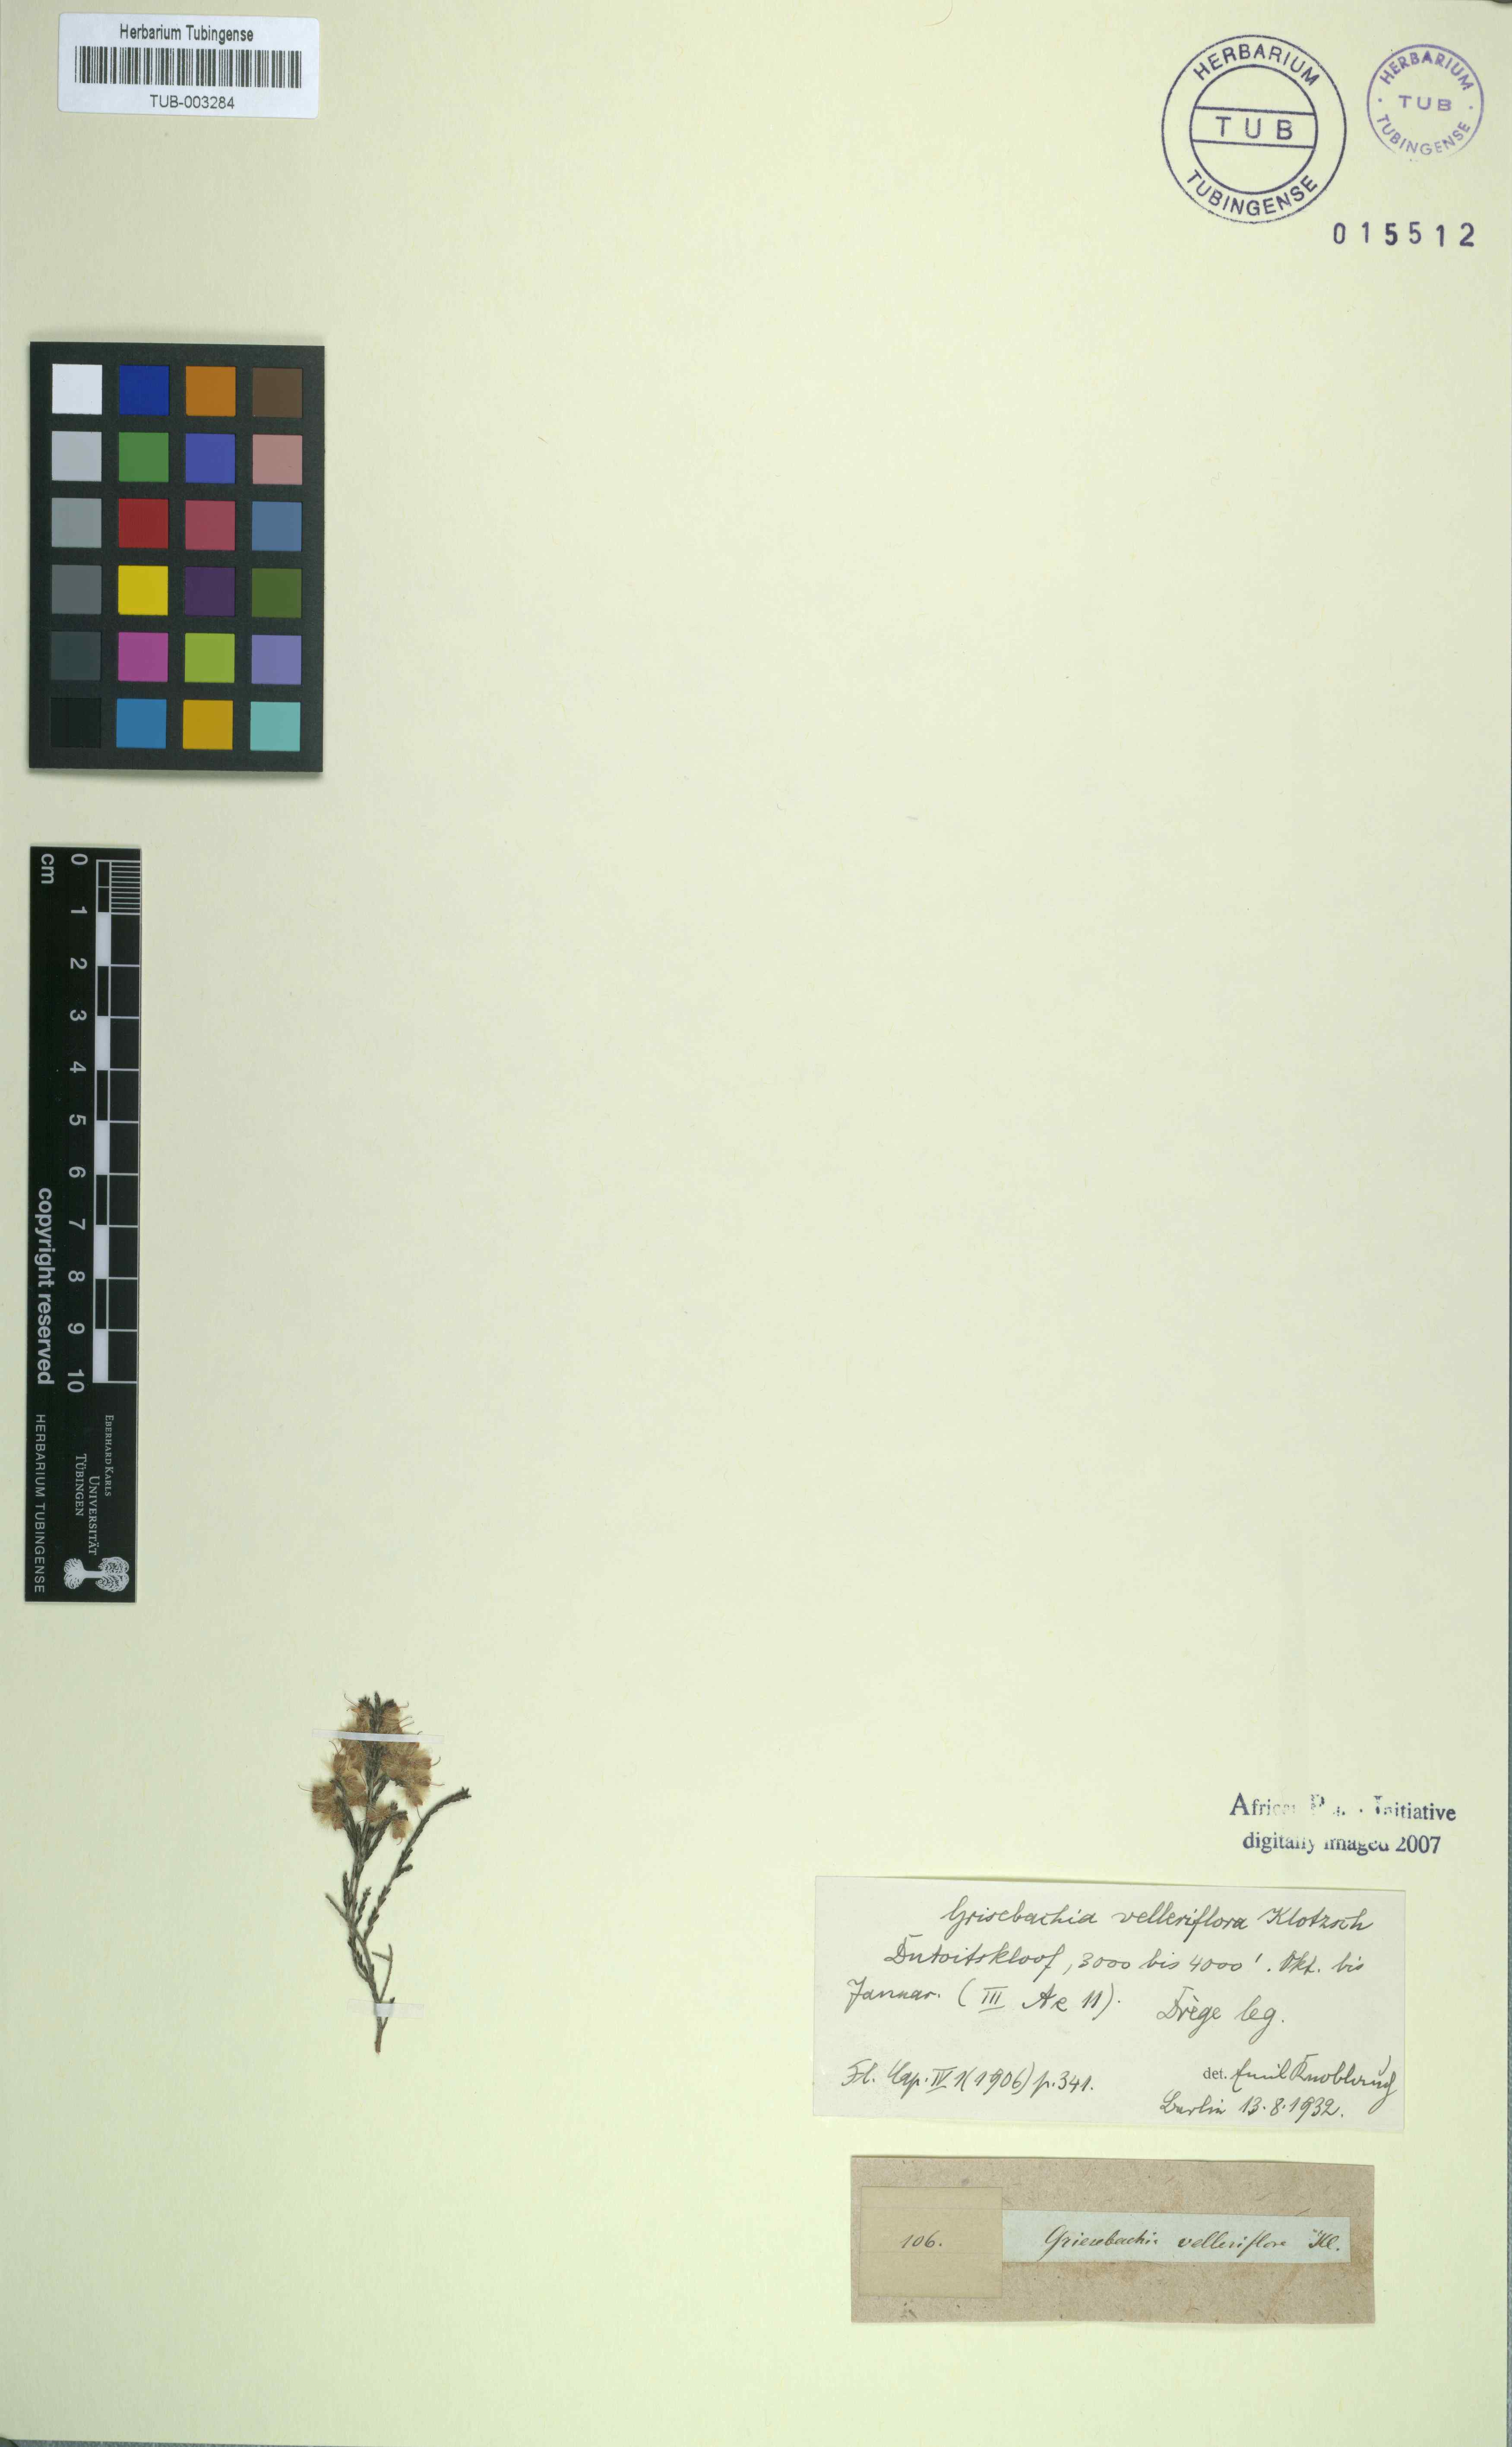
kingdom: Plantae
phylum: Tracheophyta
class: Magnoliopsida
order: Ericales
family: Ericaceae
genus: Erica
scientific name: Erica plumosa
